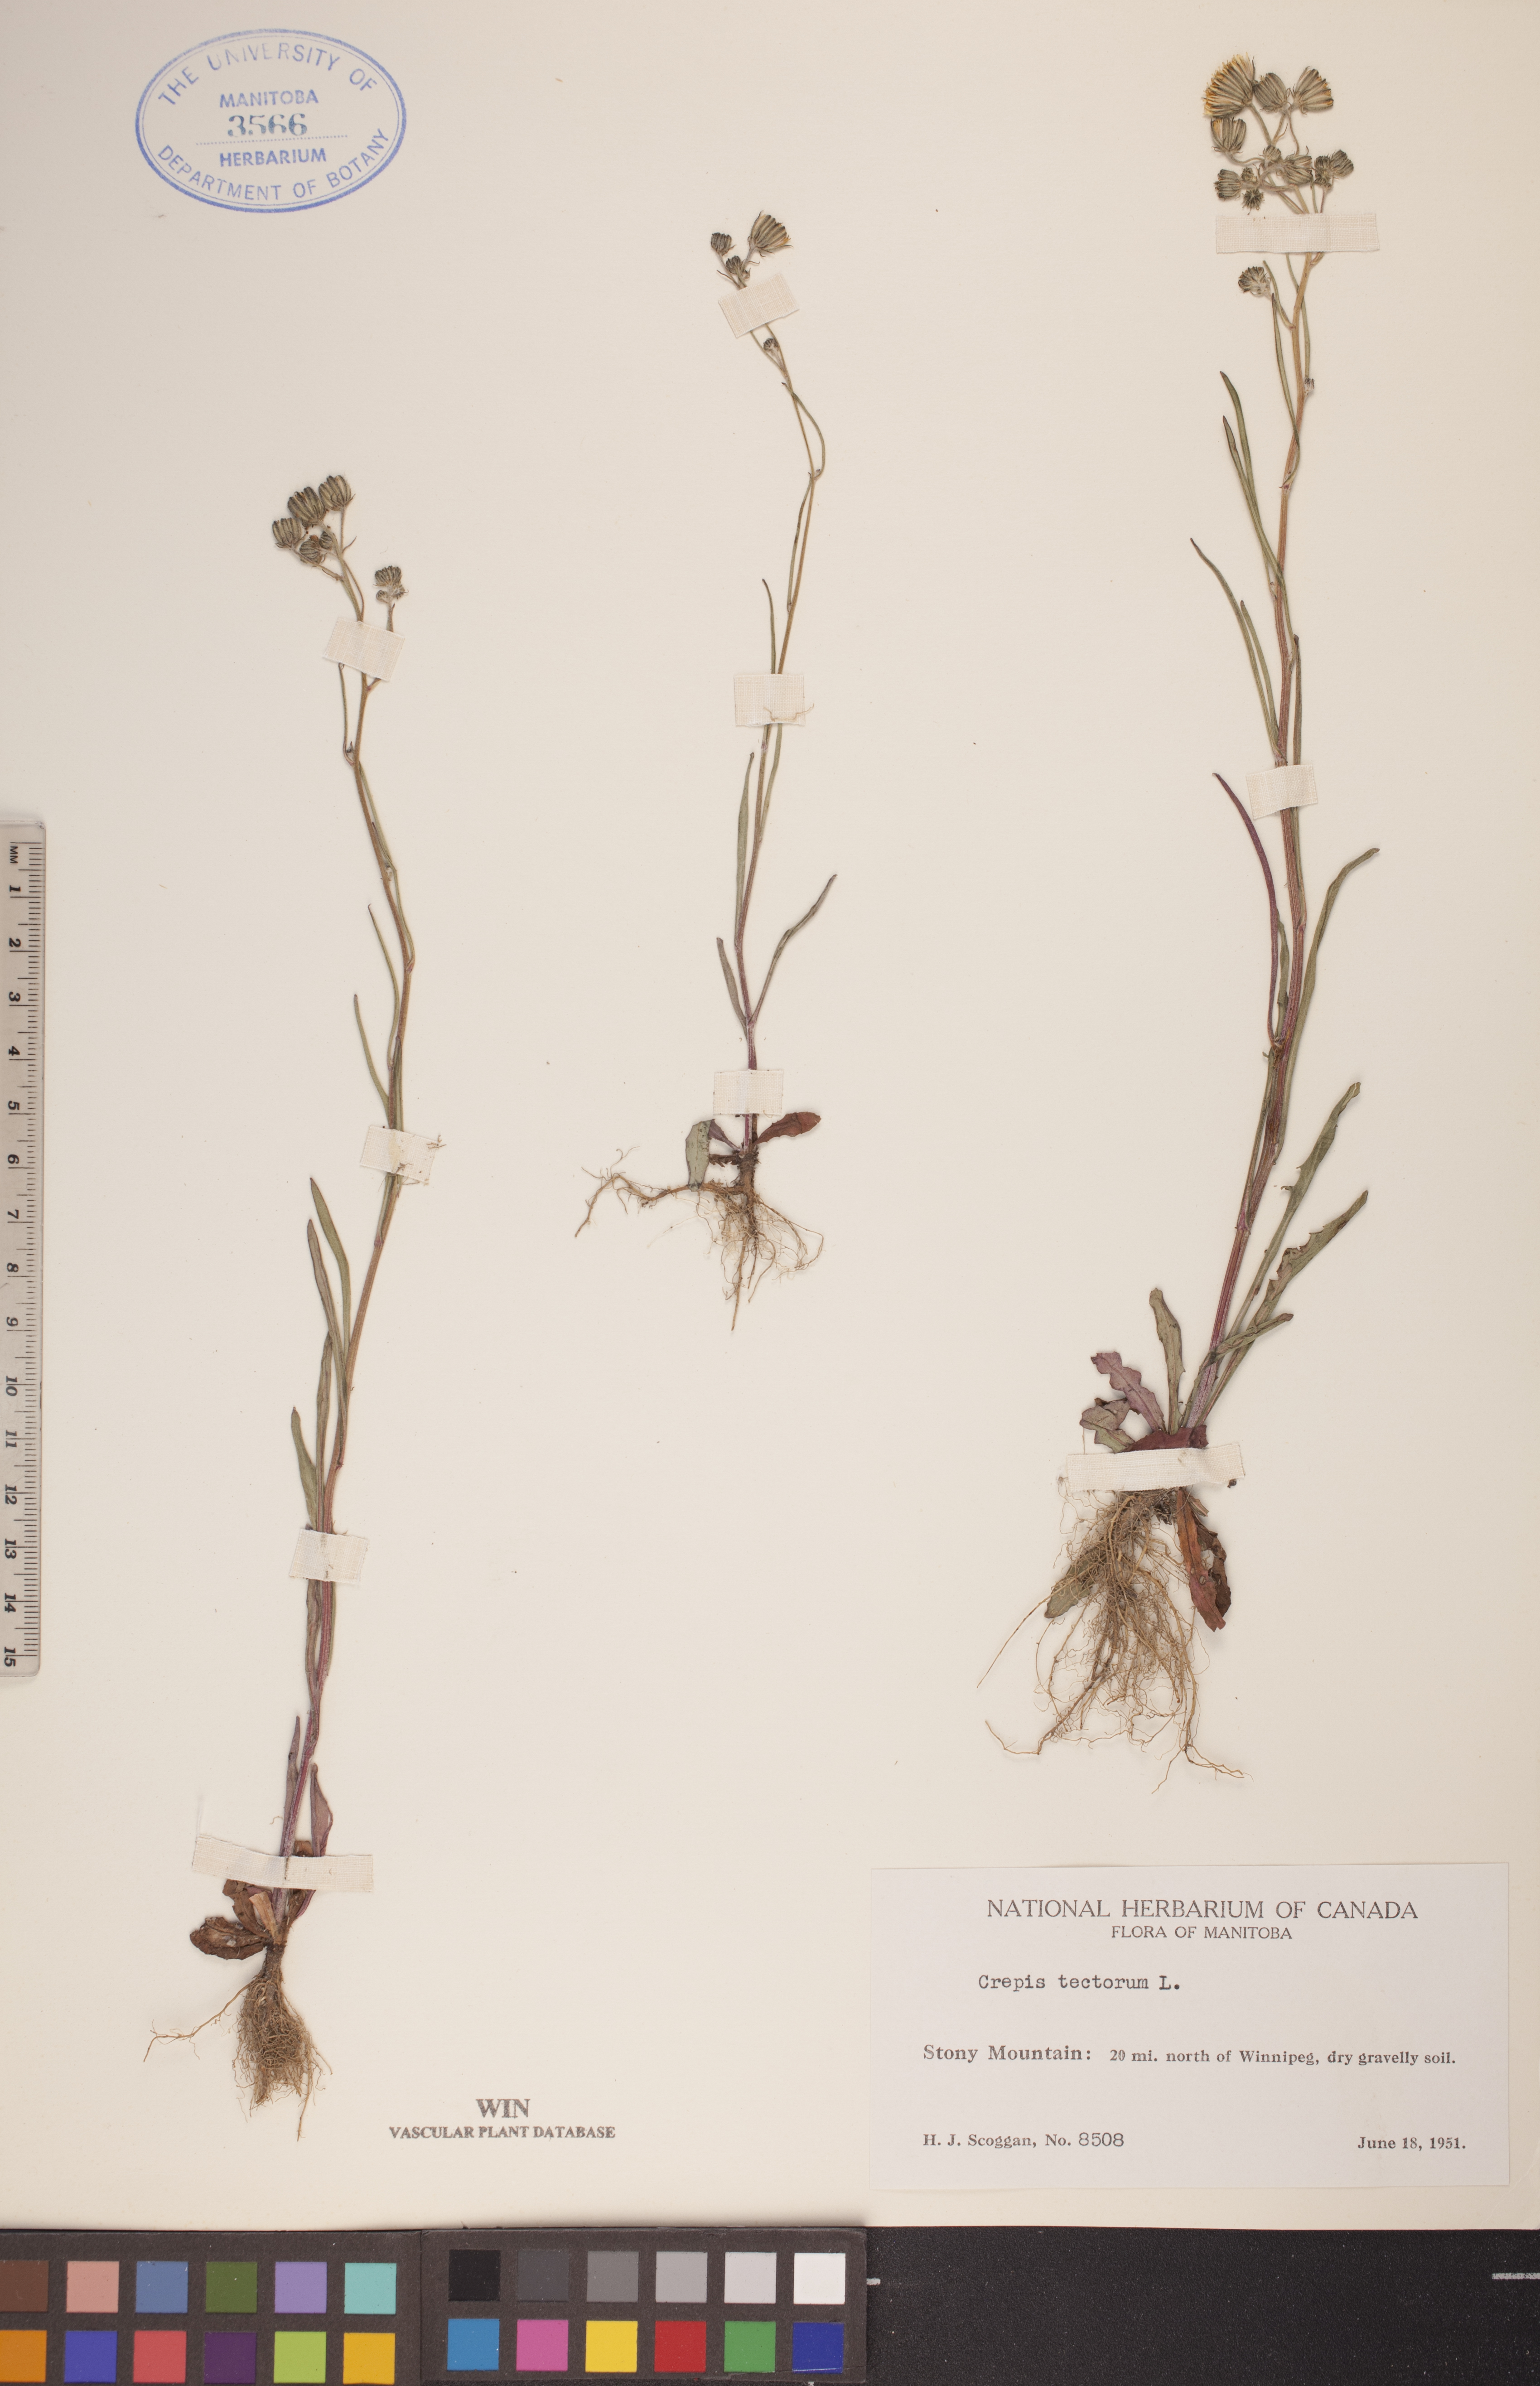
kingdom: Plantae
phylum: Tracheophyta
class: Magnoliopsida
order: Asterales
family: Asteraceae
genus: Crepis
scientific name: Crepis tectorum
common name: Narrow-leaved hawk's-beard
